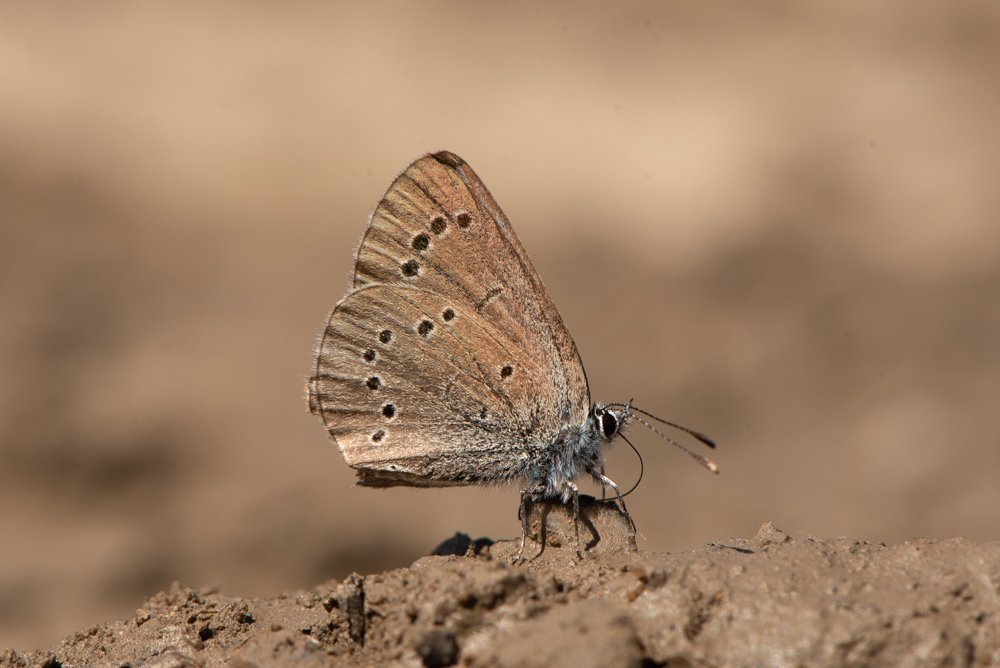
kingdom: Animalia
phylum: Arthropoda
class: Insecta
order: Lepidoptera
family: Lycaenidae
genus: Glaucopsyche
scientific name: Glaucopsyche lygdamus
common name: Silvery Blue
